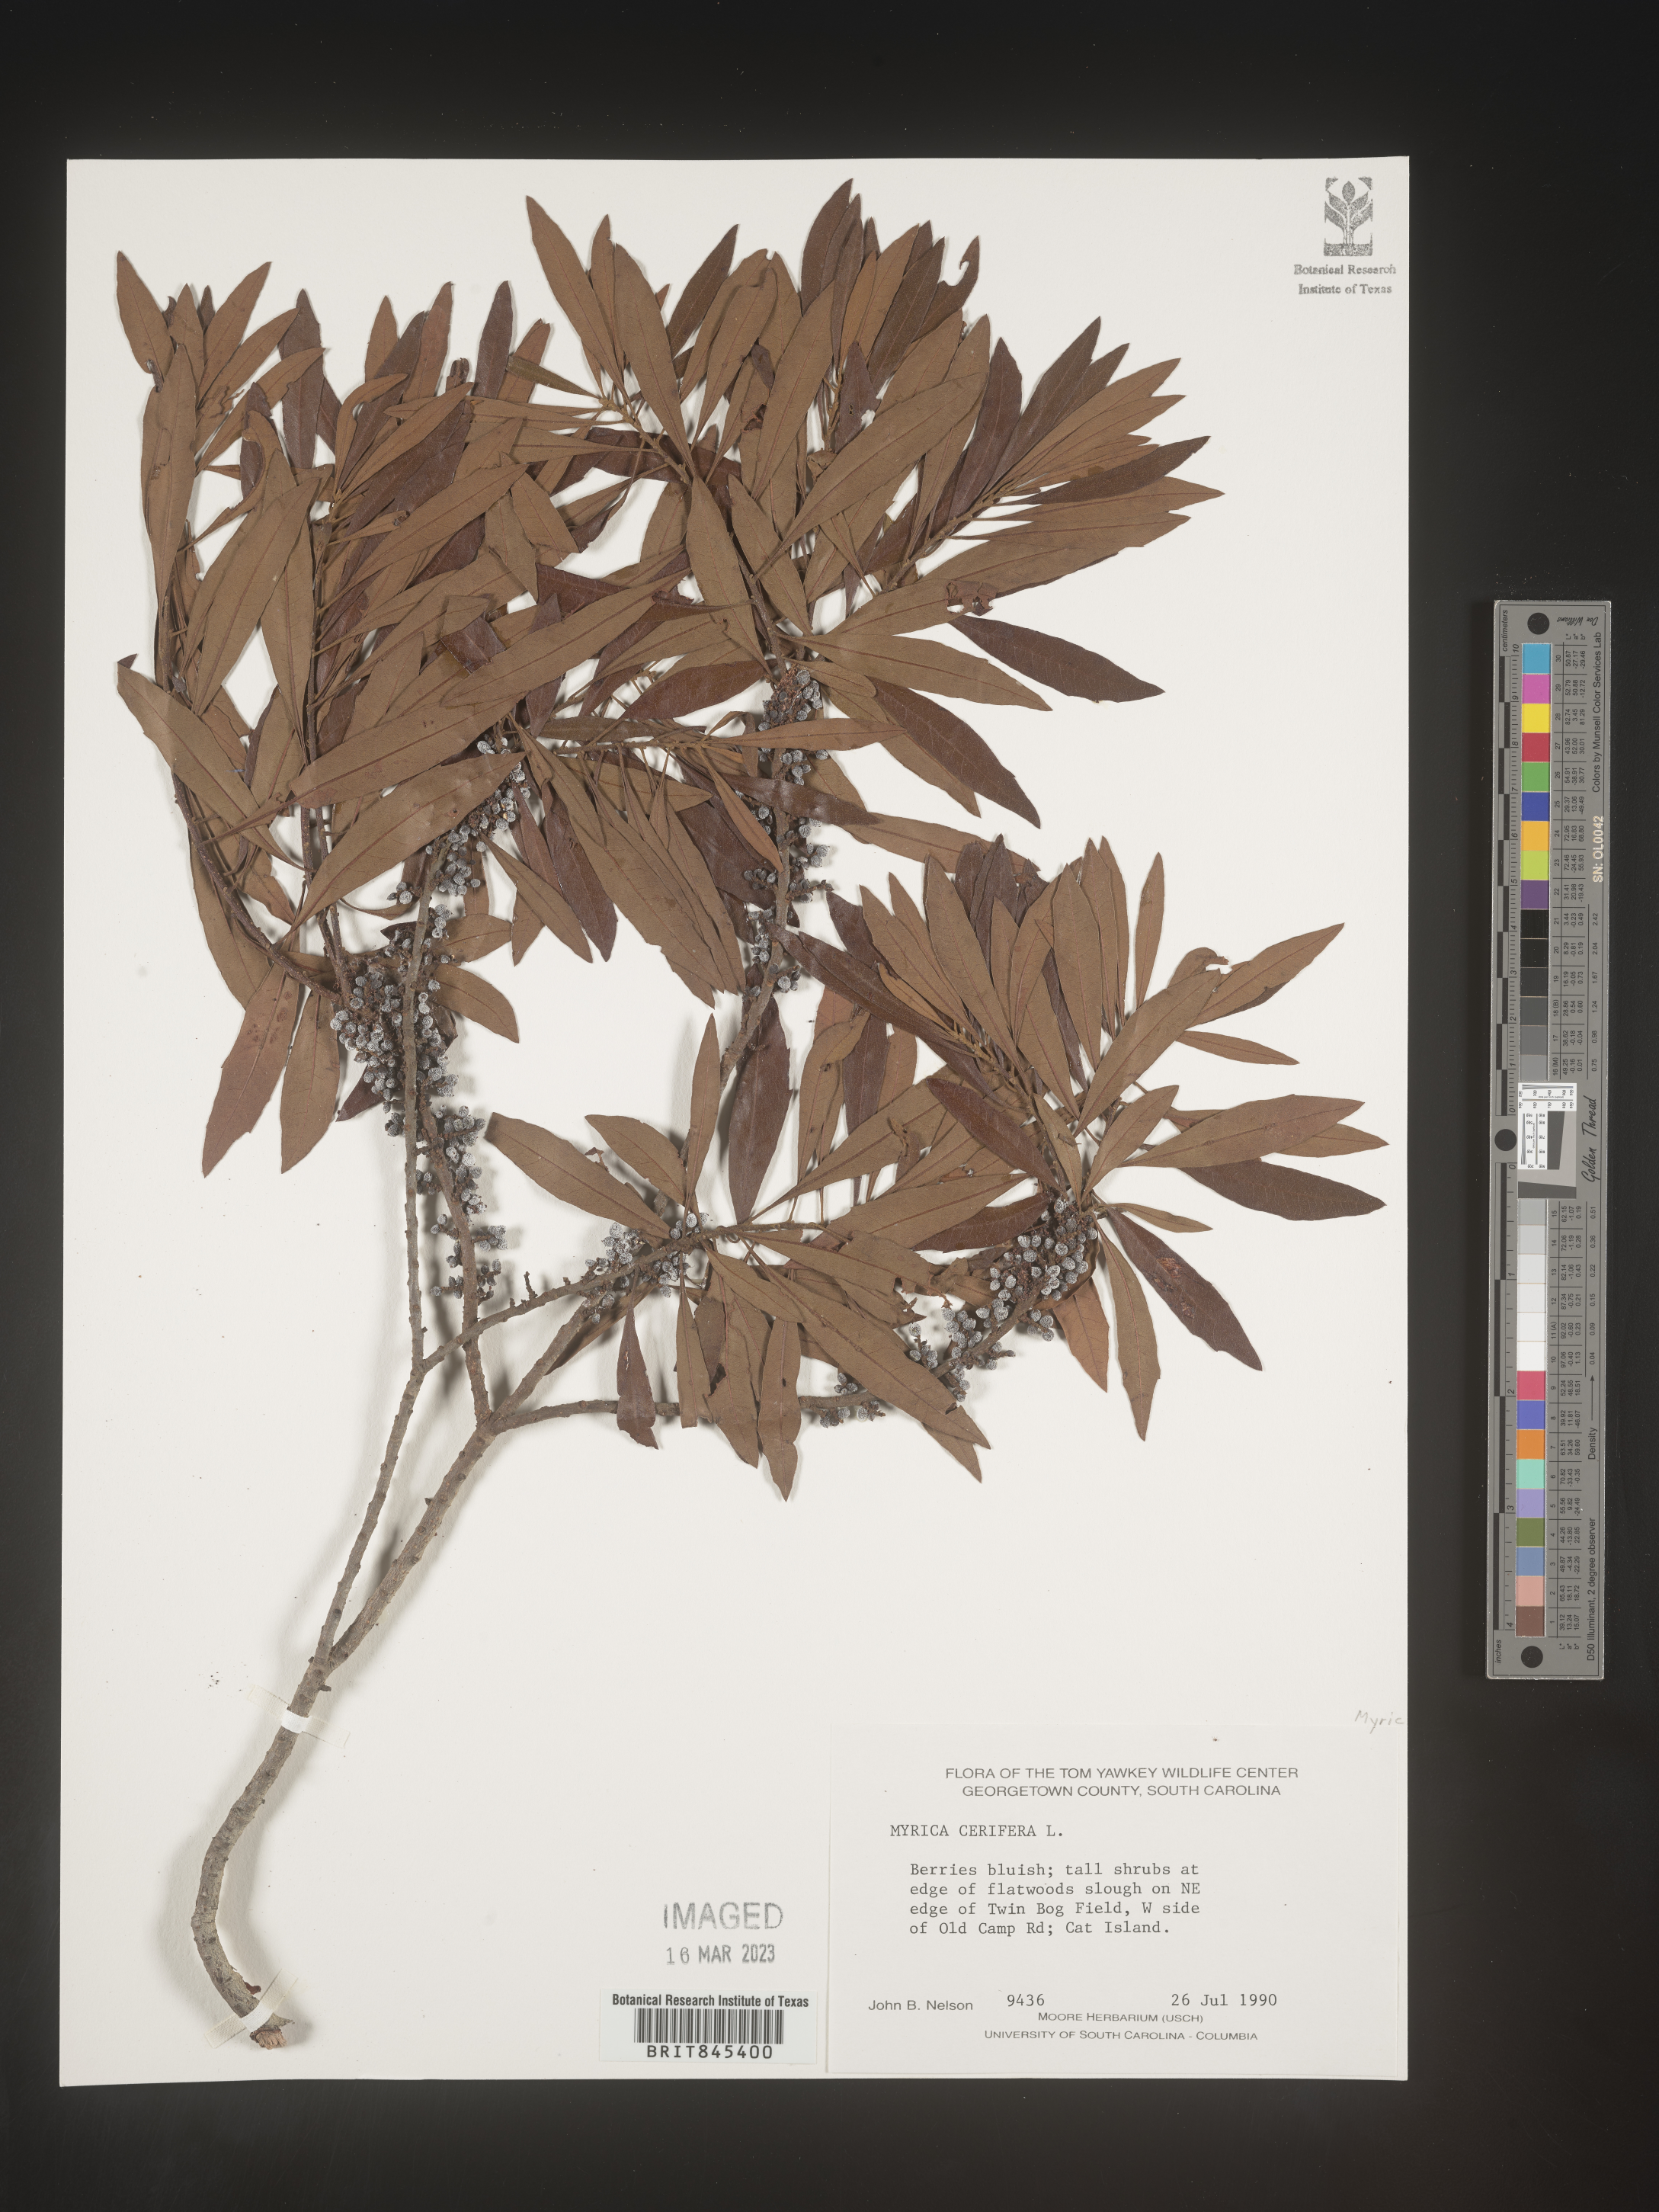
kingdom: Plantae
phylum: Tracheophyta
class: Magnoliopsida
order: Fagales
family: Myricaceae
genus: Morella
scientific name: Morella cerifera
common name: Wax myrtle
